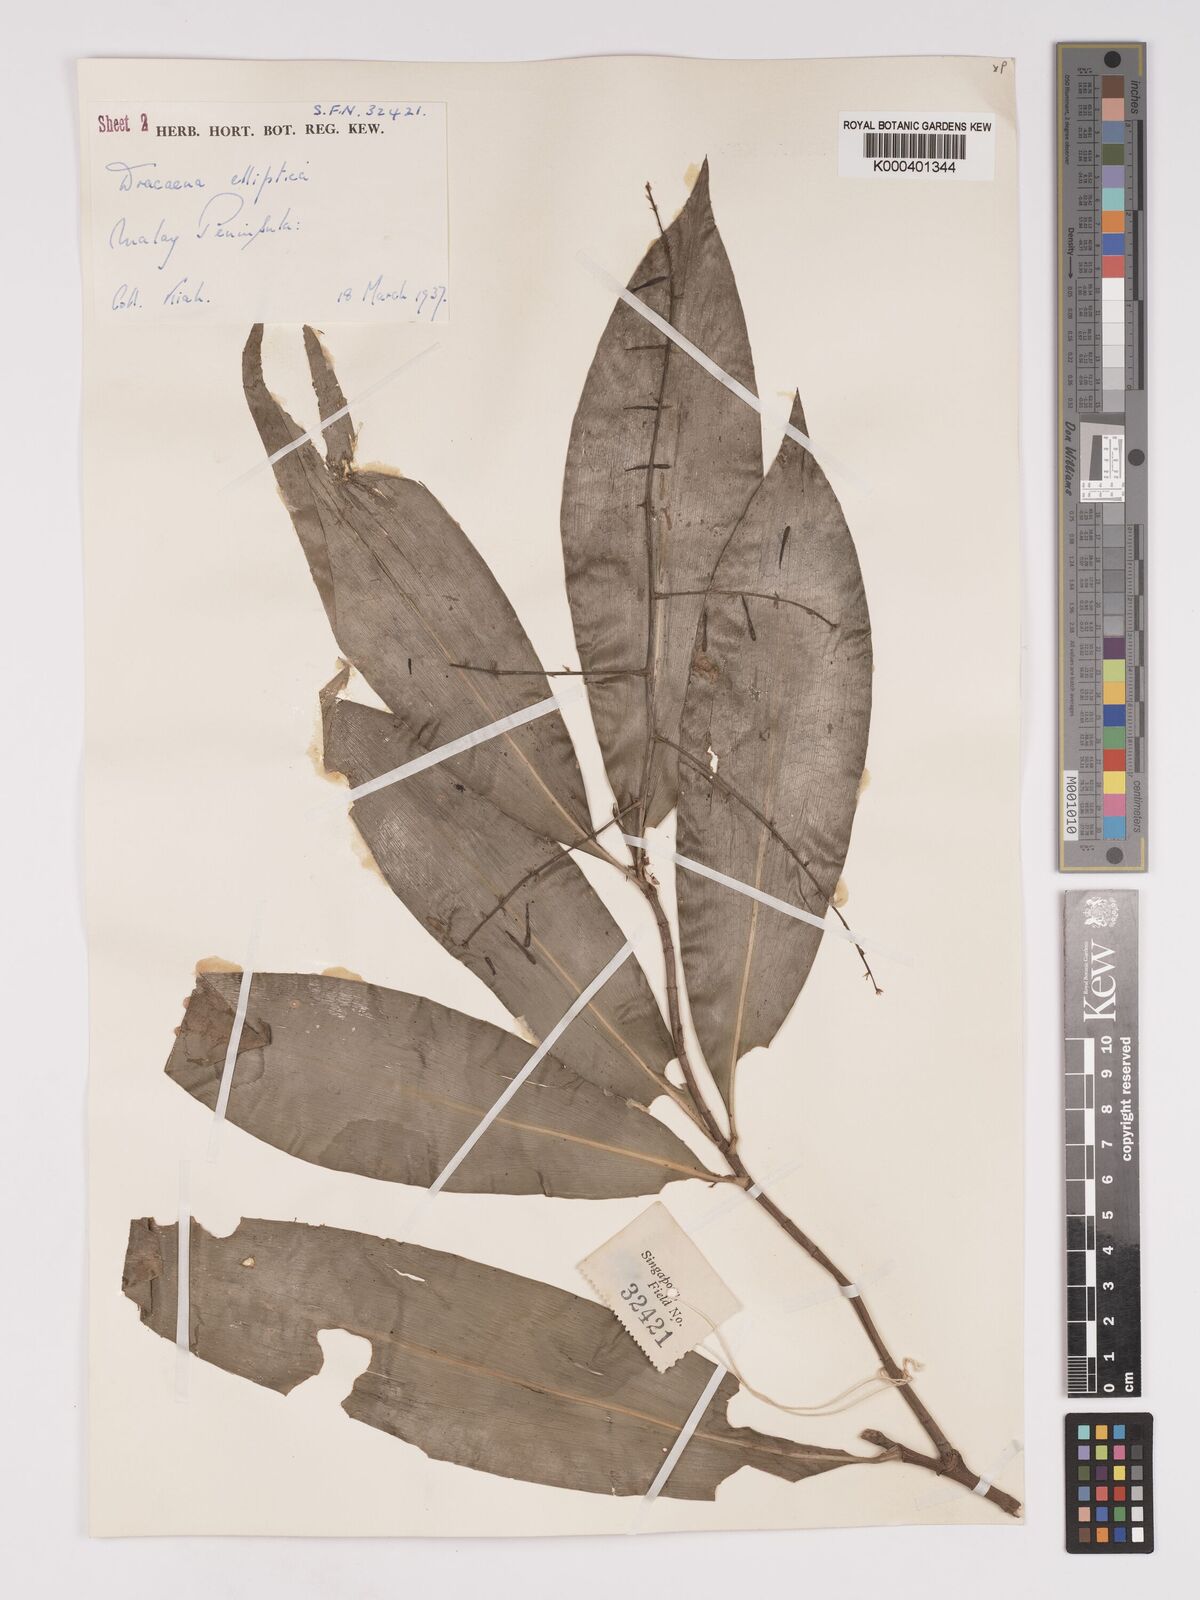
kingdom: Plantae
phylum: Tracheophyta
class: Liliopsida
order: Asparagales
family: Asparagaceae
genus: Dracaena
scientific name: Dracaena elliptica
